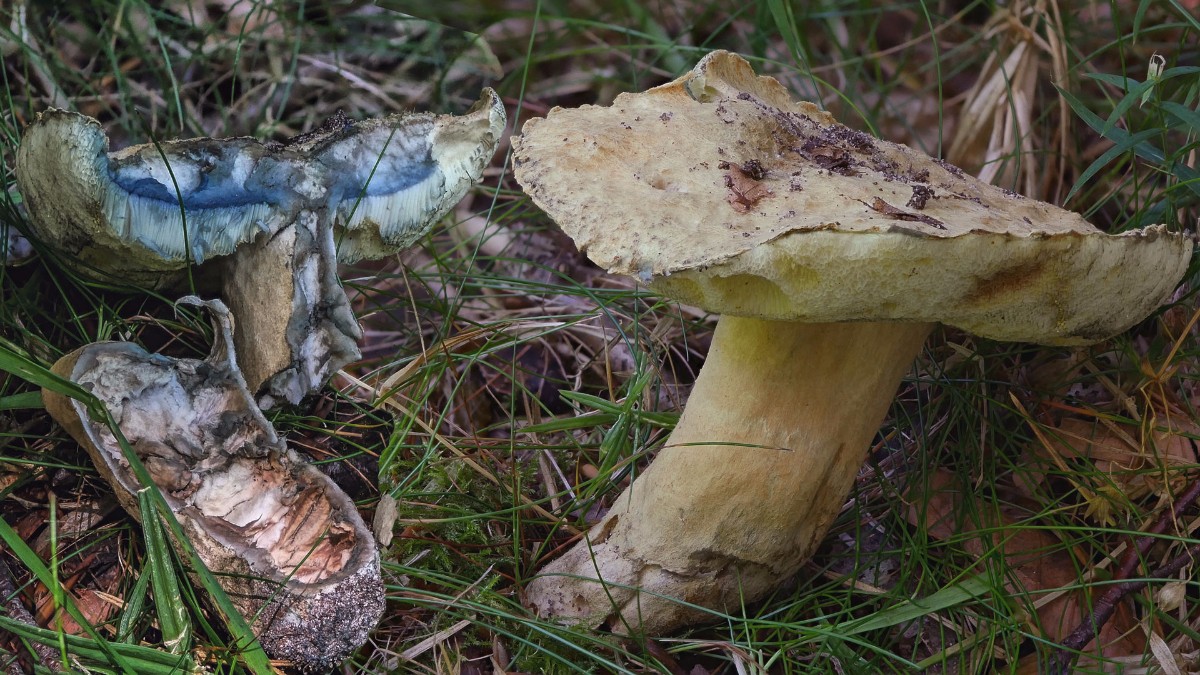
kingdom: Fungi
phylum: Basidiomycota
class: Agaricomycetes
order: Boletales
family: Gyroporaceae
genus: Gyroporus
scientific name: Gyroporus cyanescens
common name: blånende kammerrørhat
